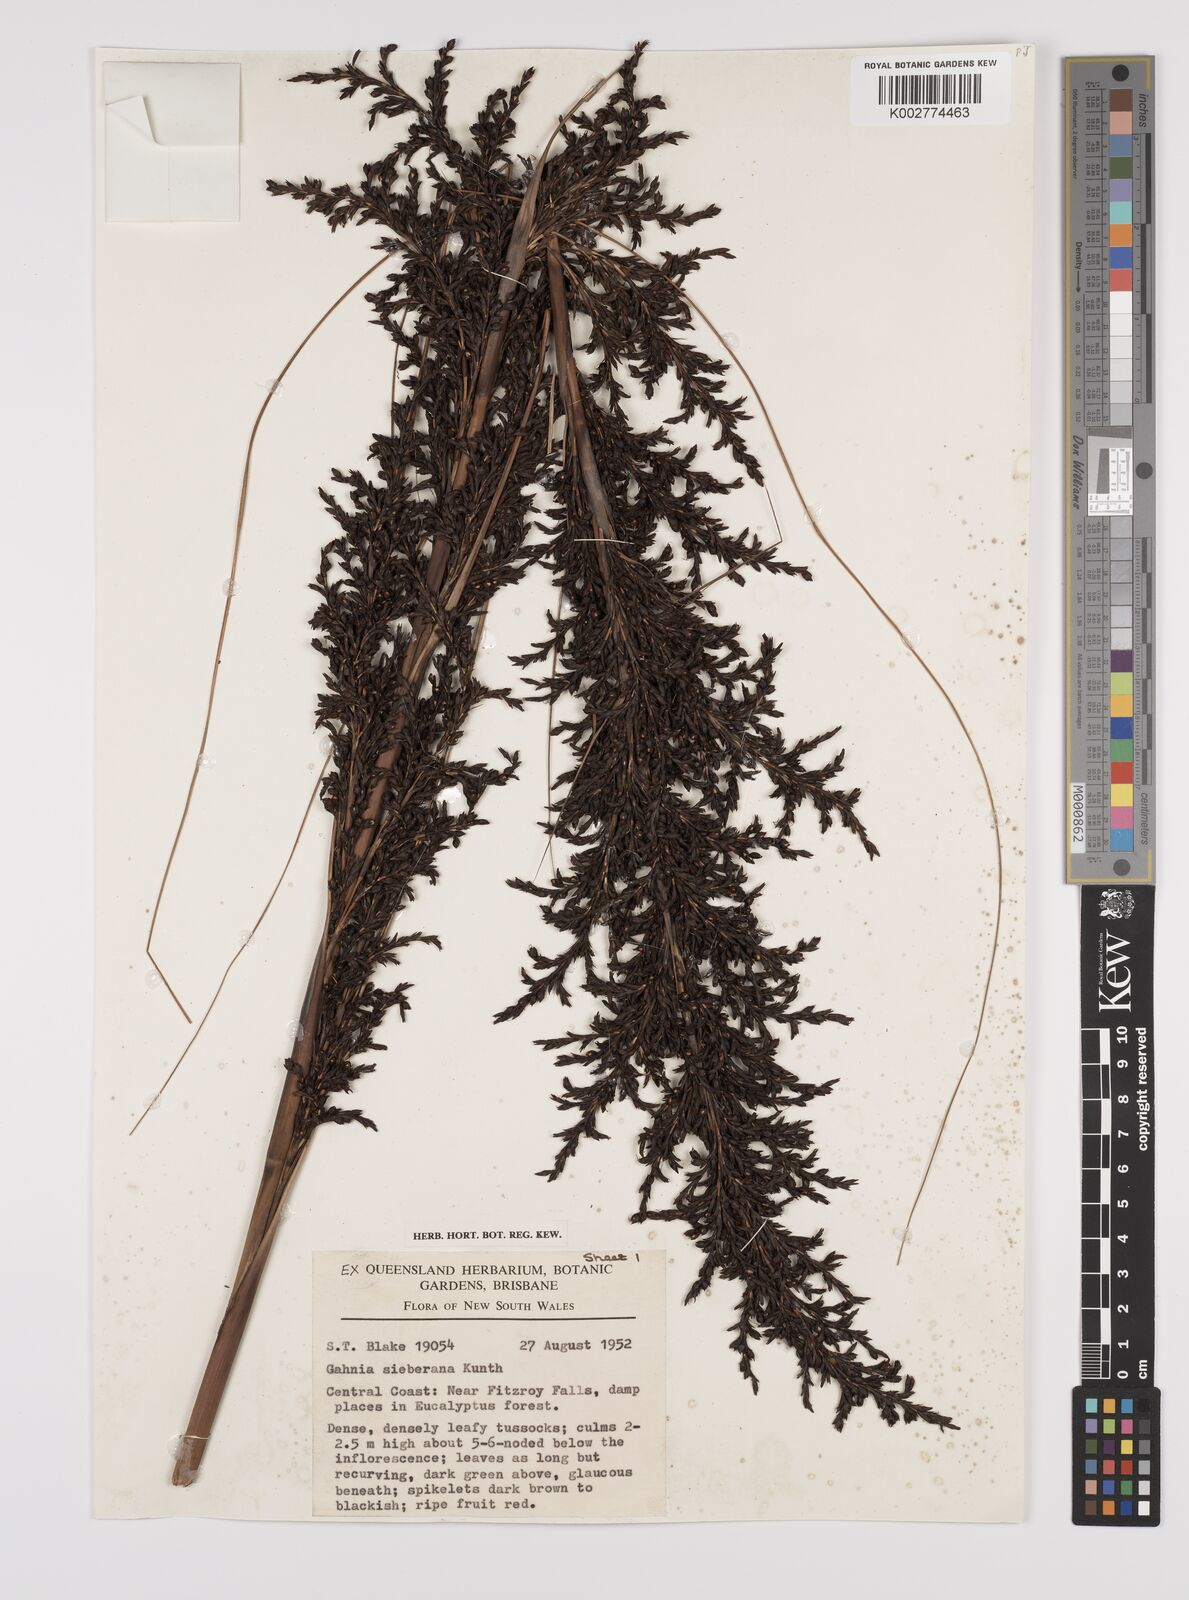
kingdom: Plantae
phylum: Tracheophyta
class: Liliopsida
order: Poales
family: Cyperaceae
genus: Gahnia
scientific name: Gahnia sieberiana
